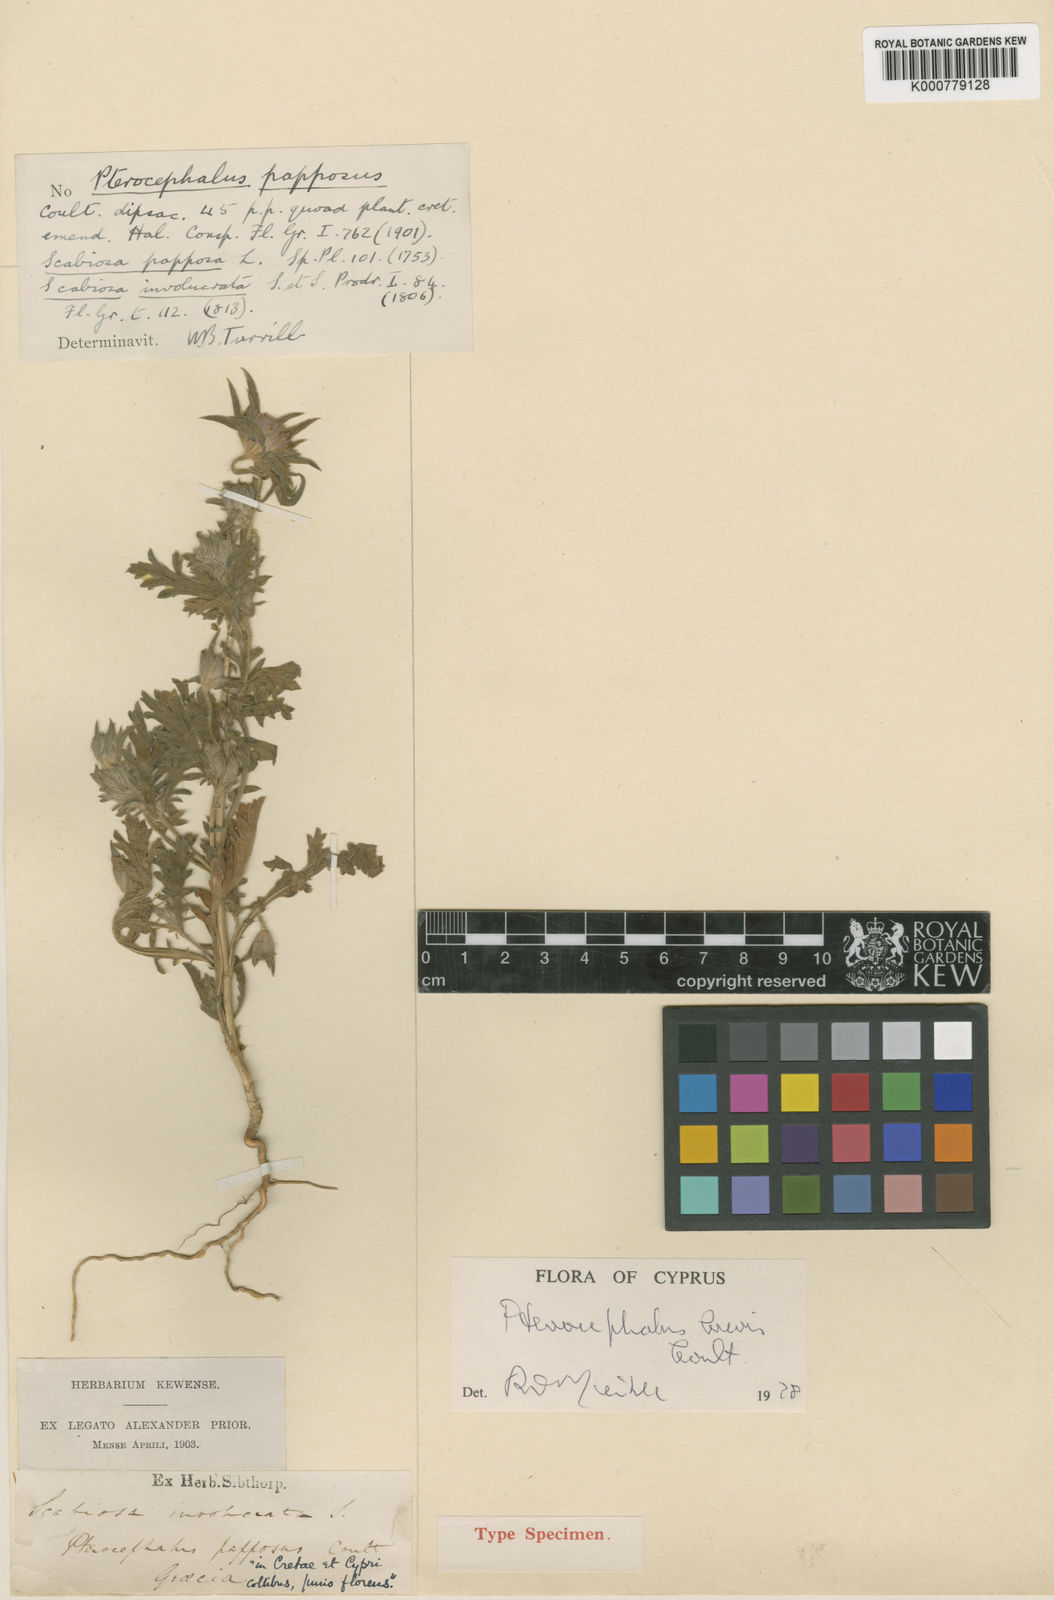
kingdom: Plantae
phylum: Tracheophyta
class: Magnoliopsida
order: Dipsacales
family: Caprifoliaceae
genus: Pterocephalus
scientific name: Pterocephalus brevis
